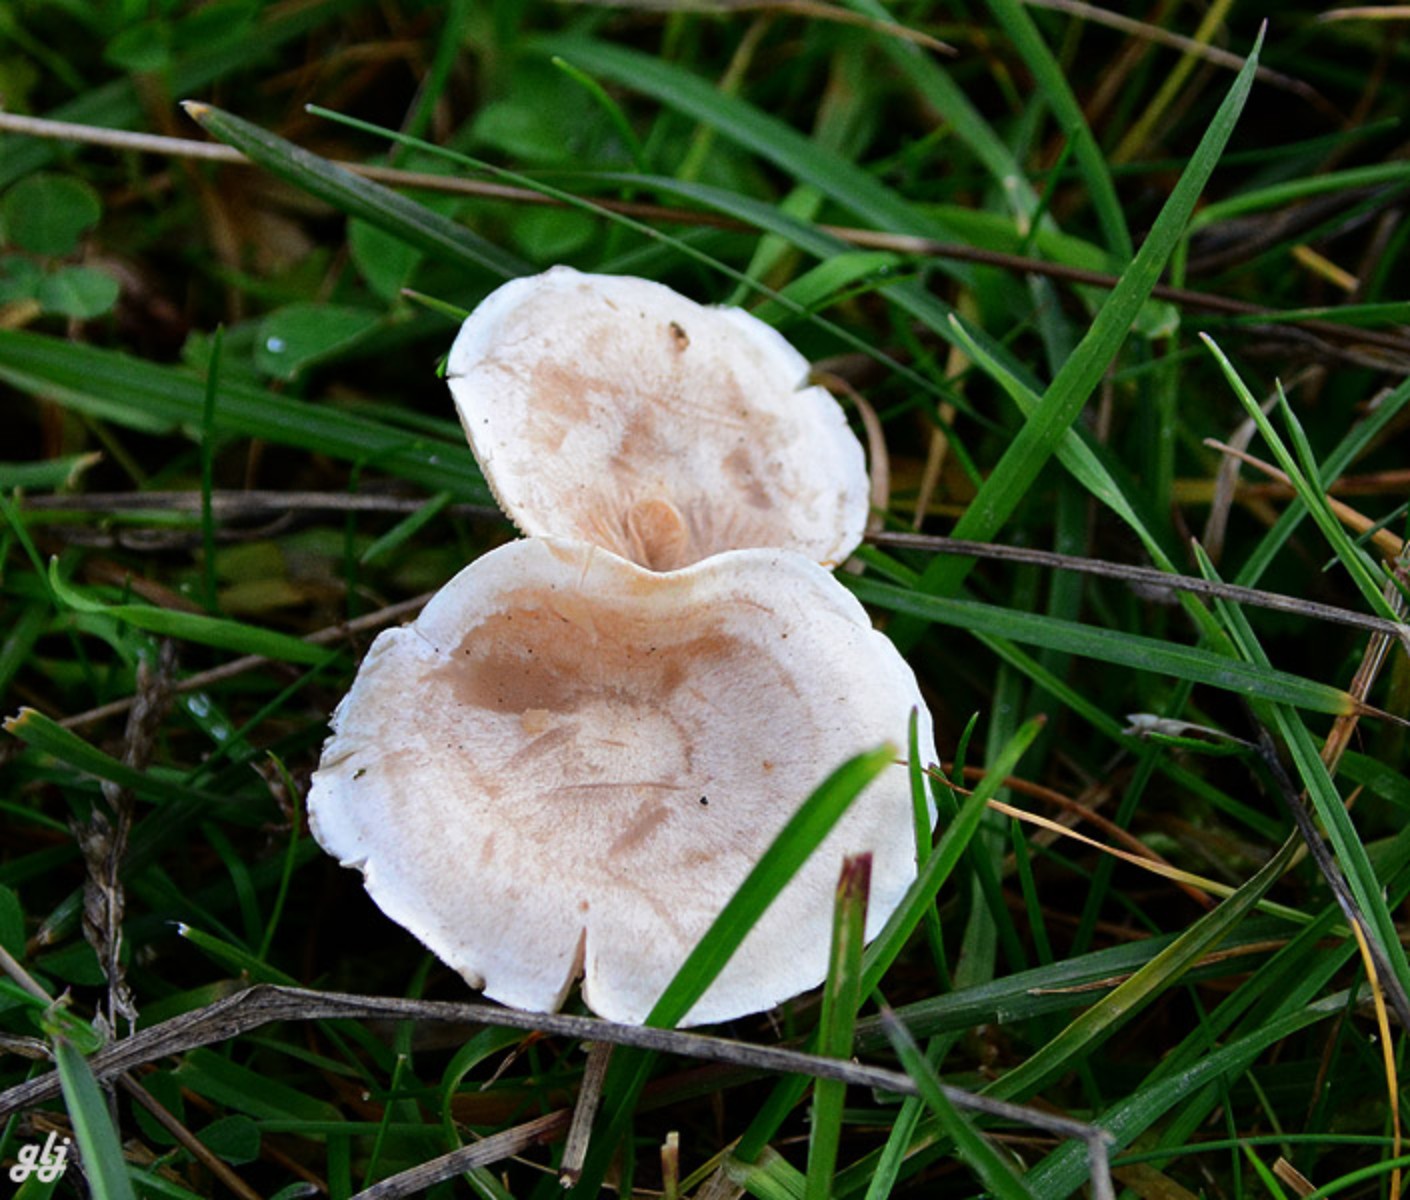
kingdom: Fungi
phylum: Basidiomycota
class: Agaricomycetes
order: Agaricales
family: Tricholomataceae
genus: Clitocybe
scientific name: Clitocybe rivulosa
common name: eng-tragthat
